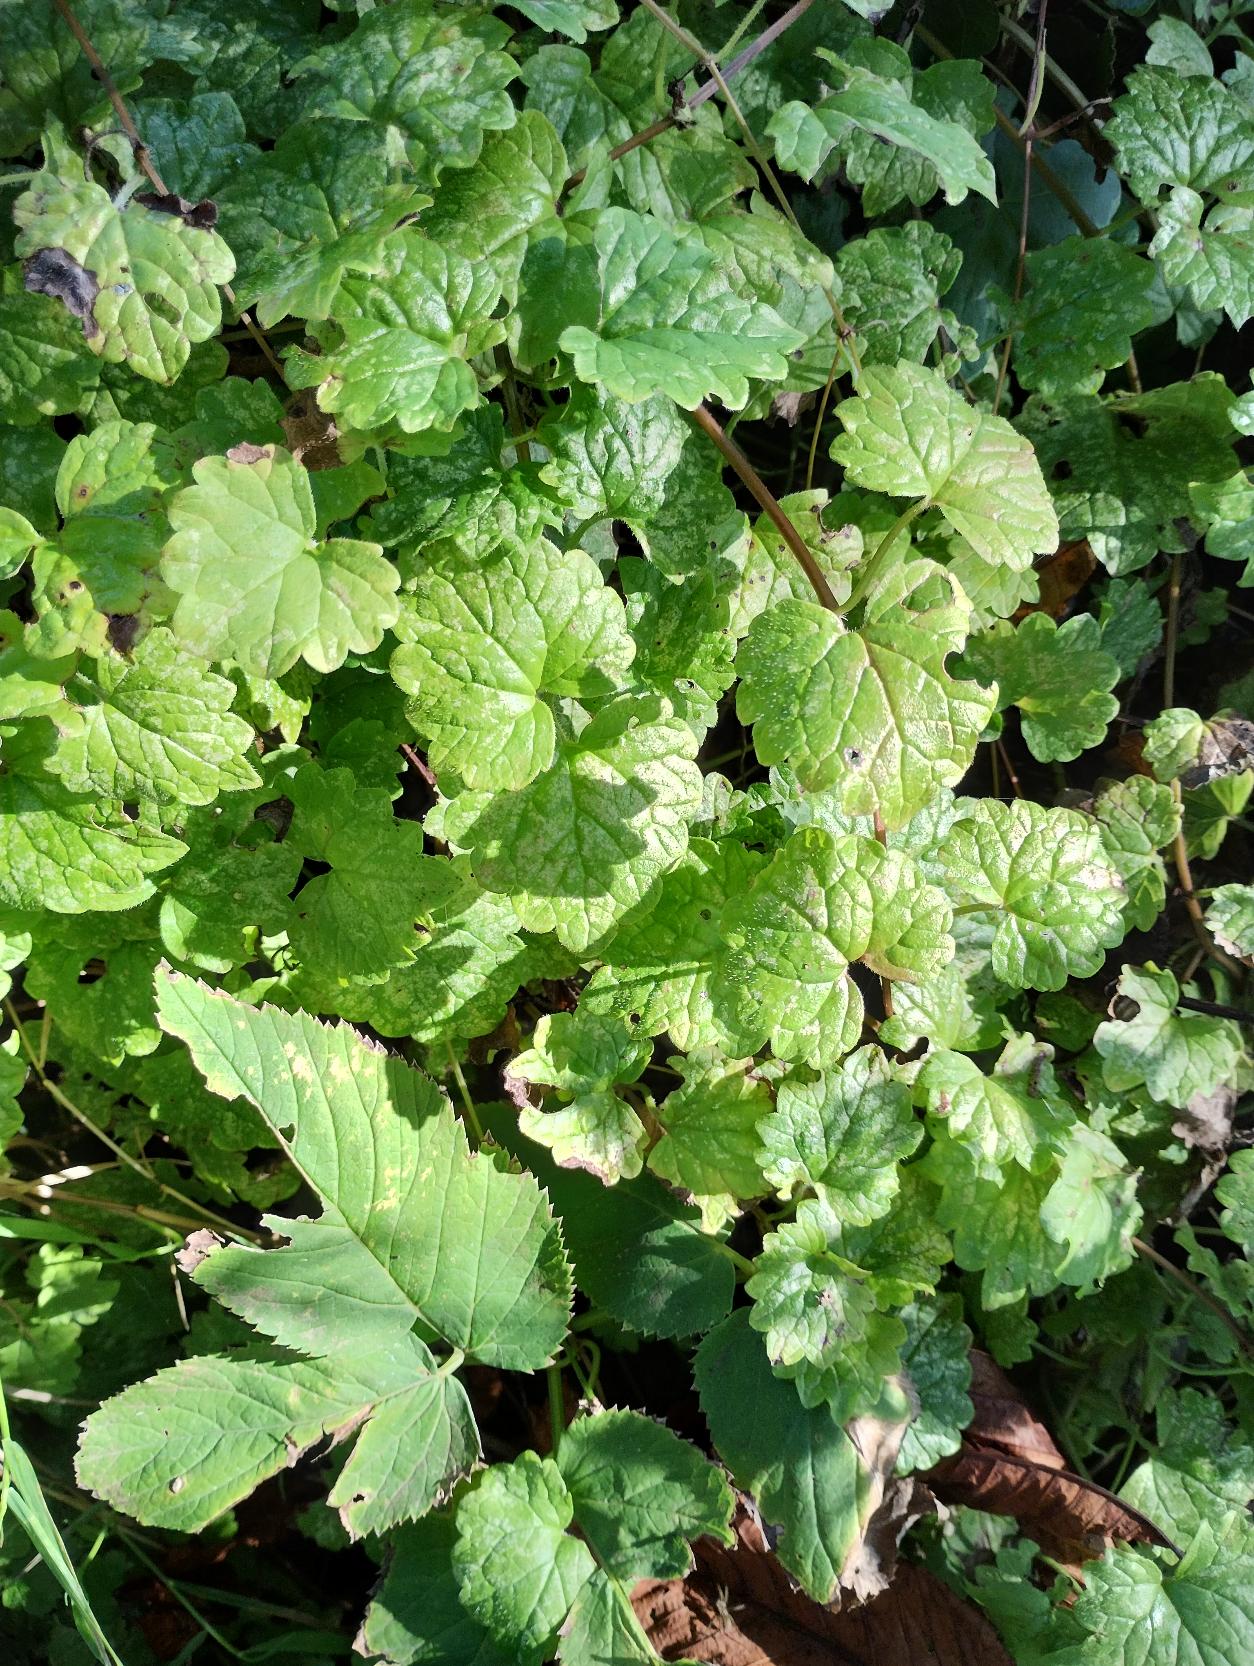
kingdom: Plantae
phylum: Tracheophyta
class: Magnoliopsida
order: Lamiales
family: Lamiaceae
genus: Glechoma
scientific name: Glechoma hederacea
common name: Korsknap
